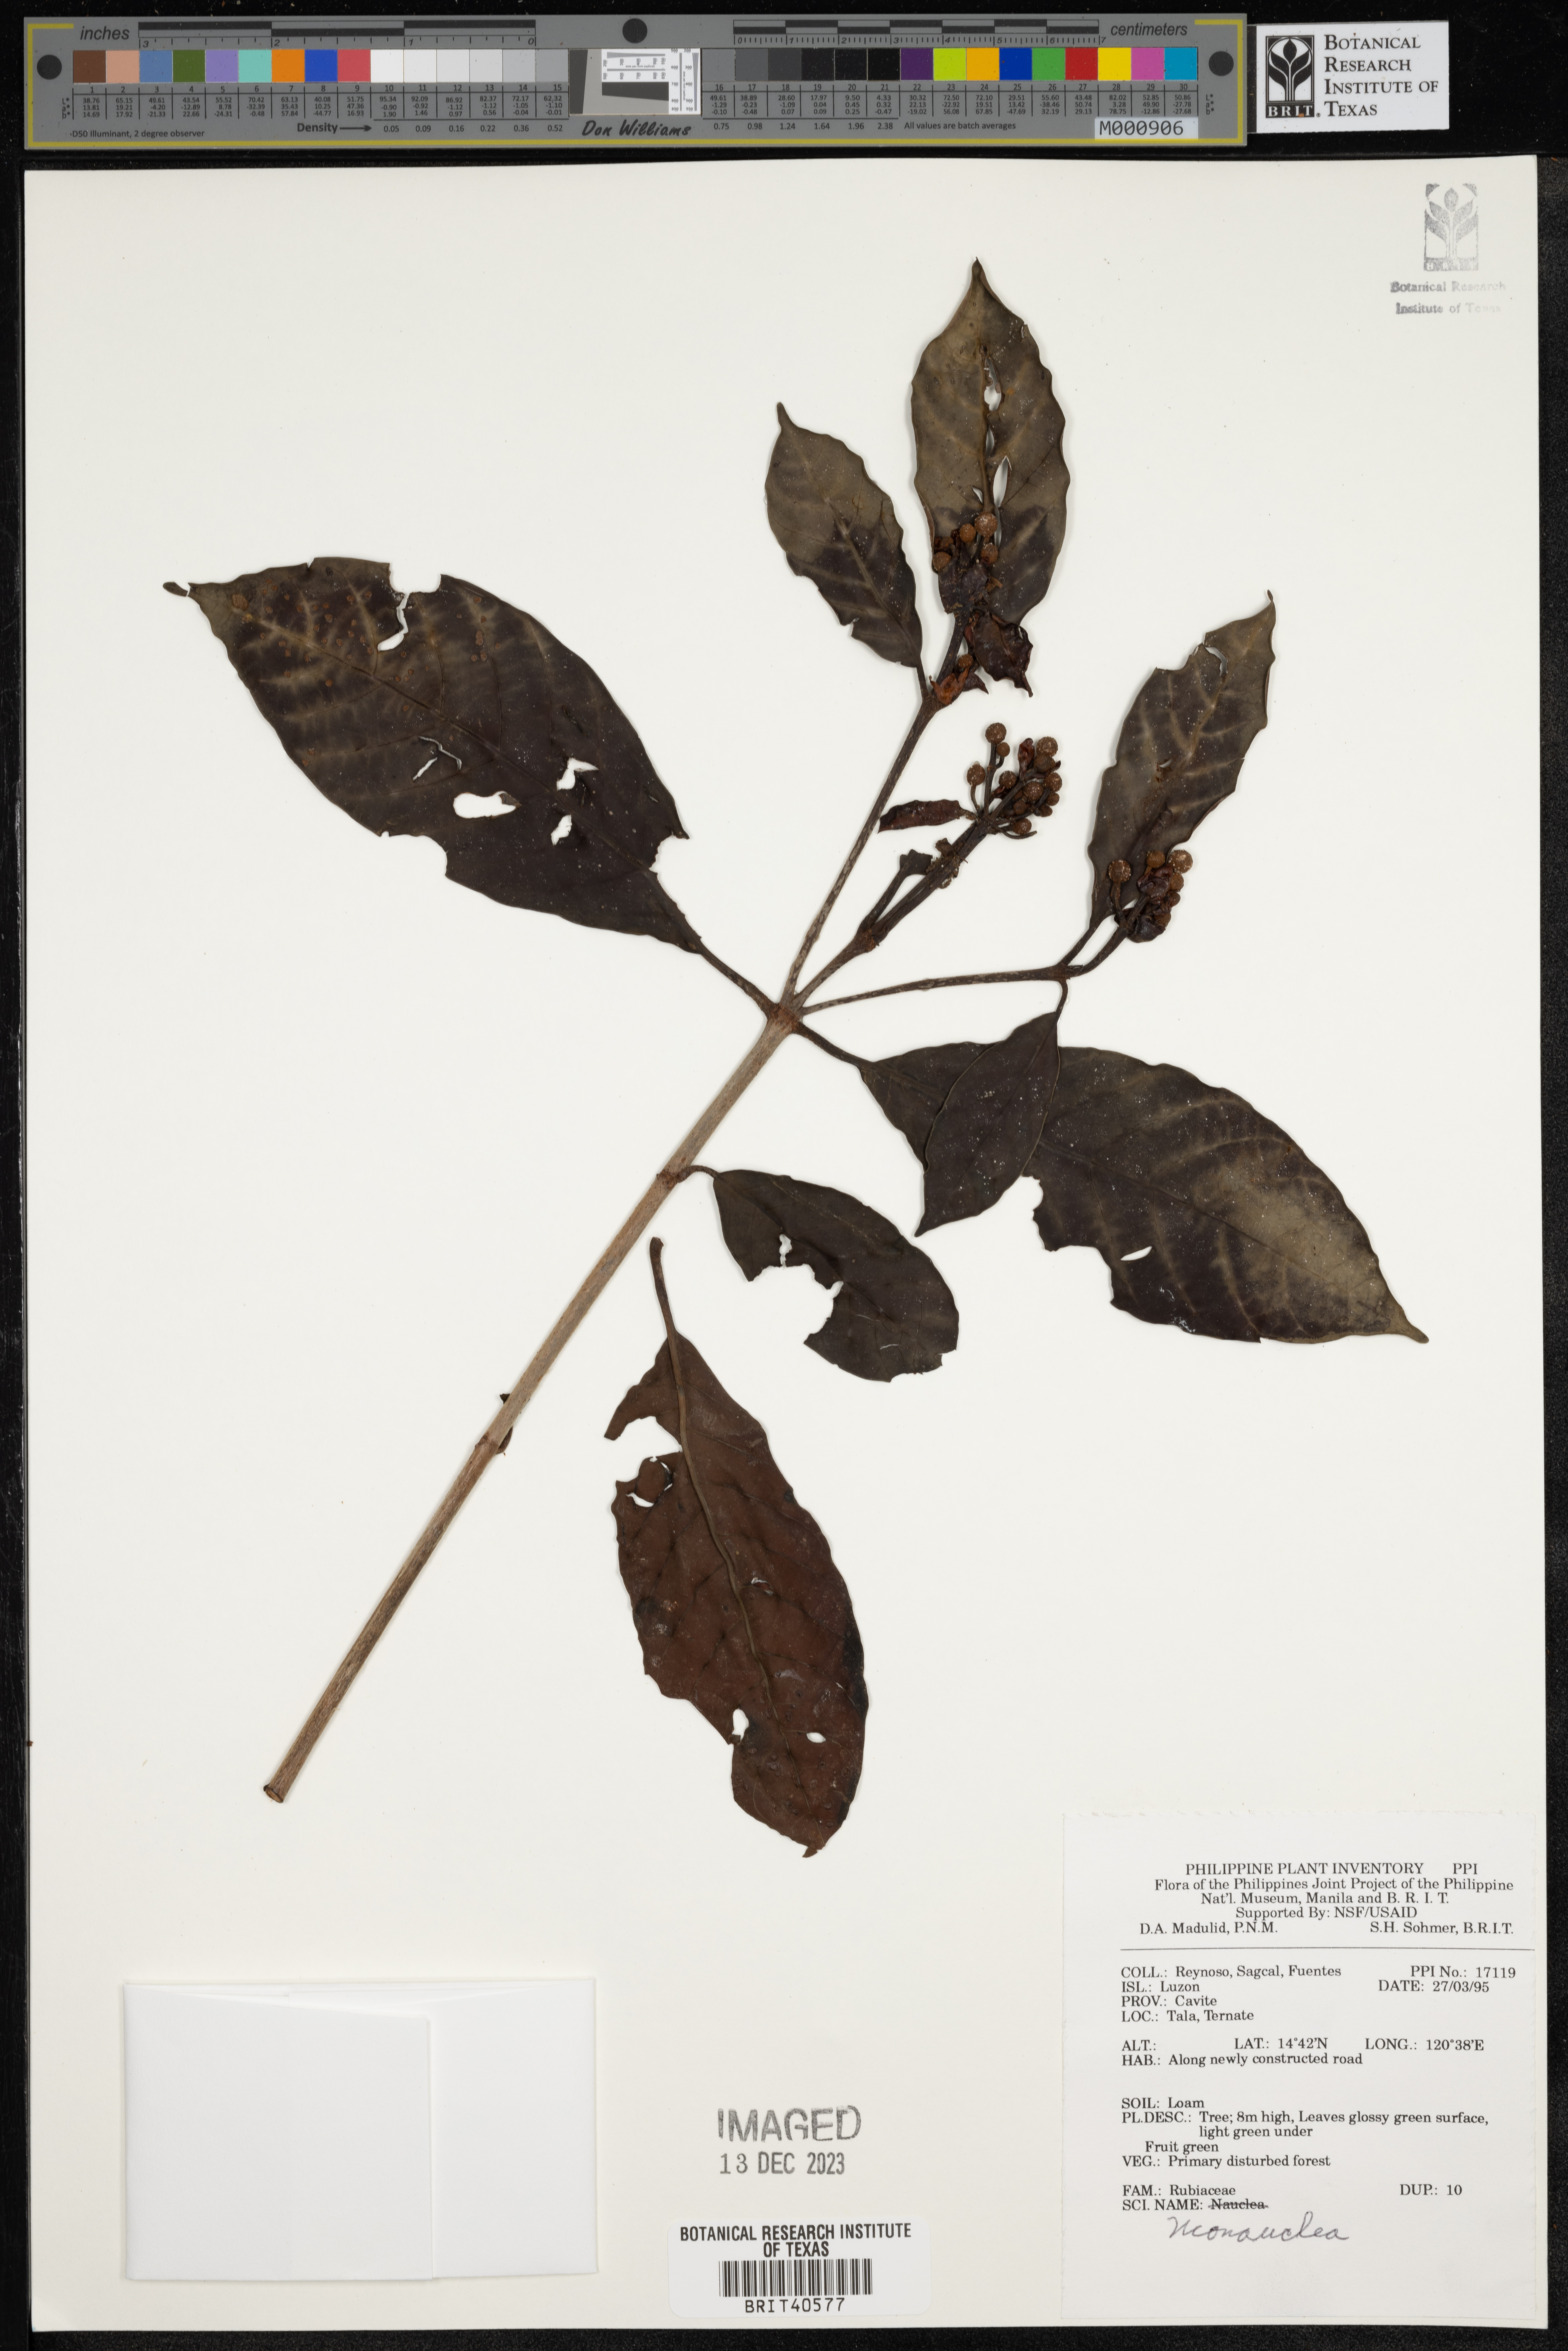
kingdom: Plantae
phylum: Tracheophyta
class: Magnoliopsida
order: Gentianales
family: Rubiaceae
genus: Neonauclea
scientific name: Neonauclea
